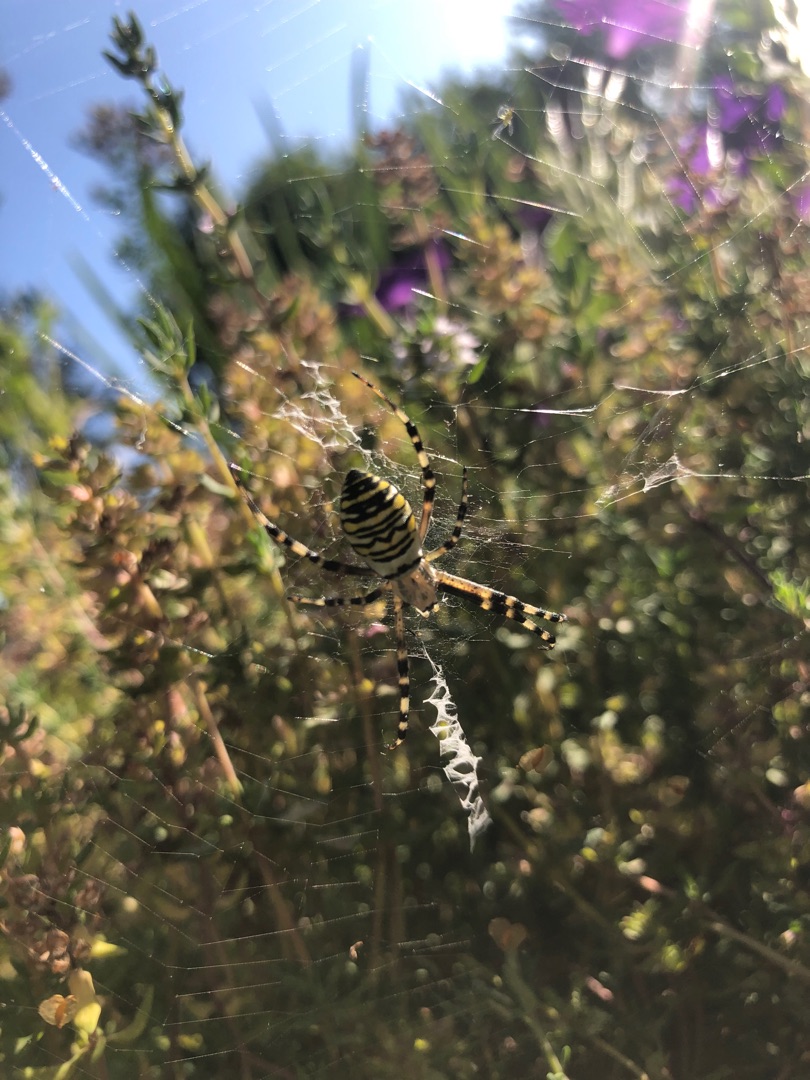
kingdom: Animalia
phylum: Arthropoda
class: Arachnida
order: Araneae
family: Araneidae
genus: Argiope
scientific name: Argiope bruennichi
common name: Hvepseedderkop
